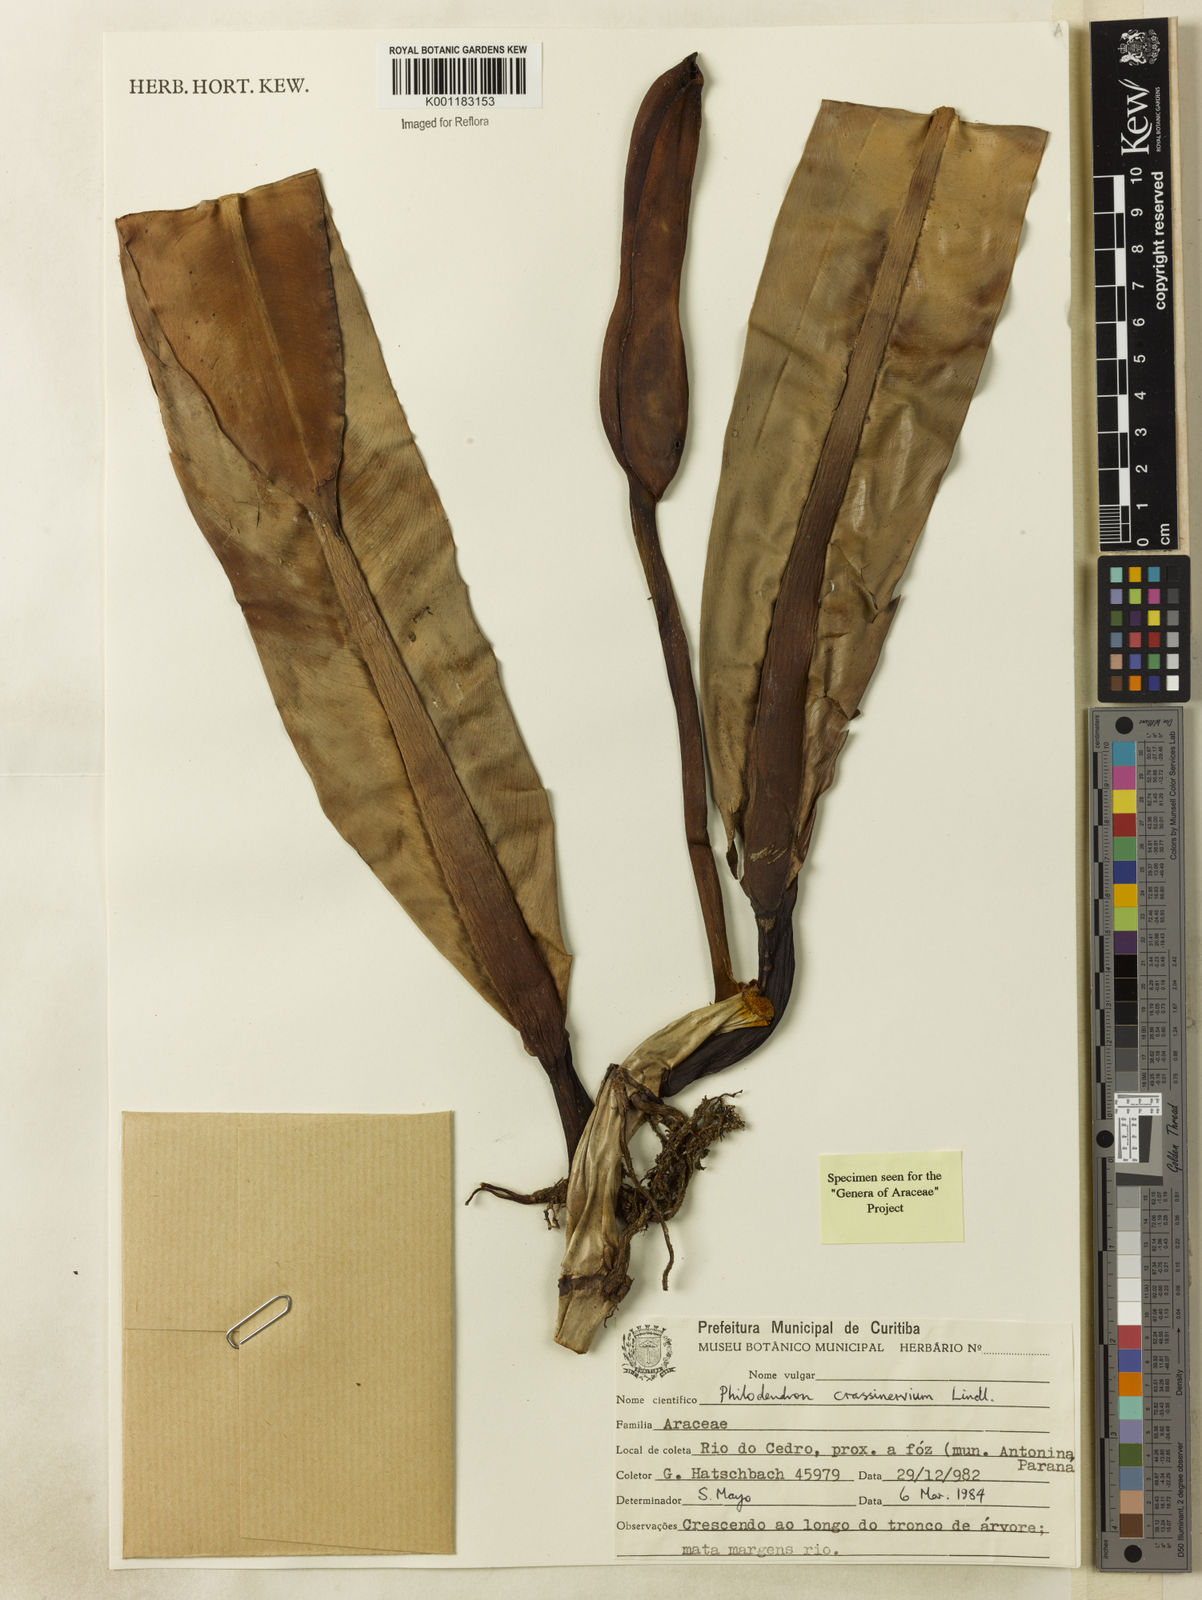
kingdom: Plantae
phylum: Tracheophyta
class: Liliopsida
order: Alismatales
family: Araceae
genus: Philodendron
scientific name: Philodendron crassinervium
